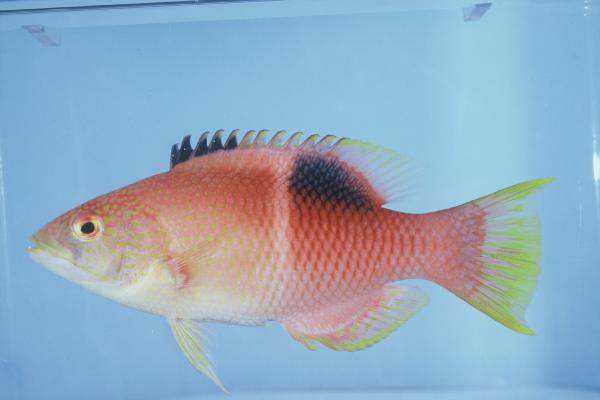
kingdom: Animalia
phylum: Chordata
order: Perciformes
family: Labridae
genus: Bodianus
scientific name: Bodianus perditio
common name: Goldspot pigfish
